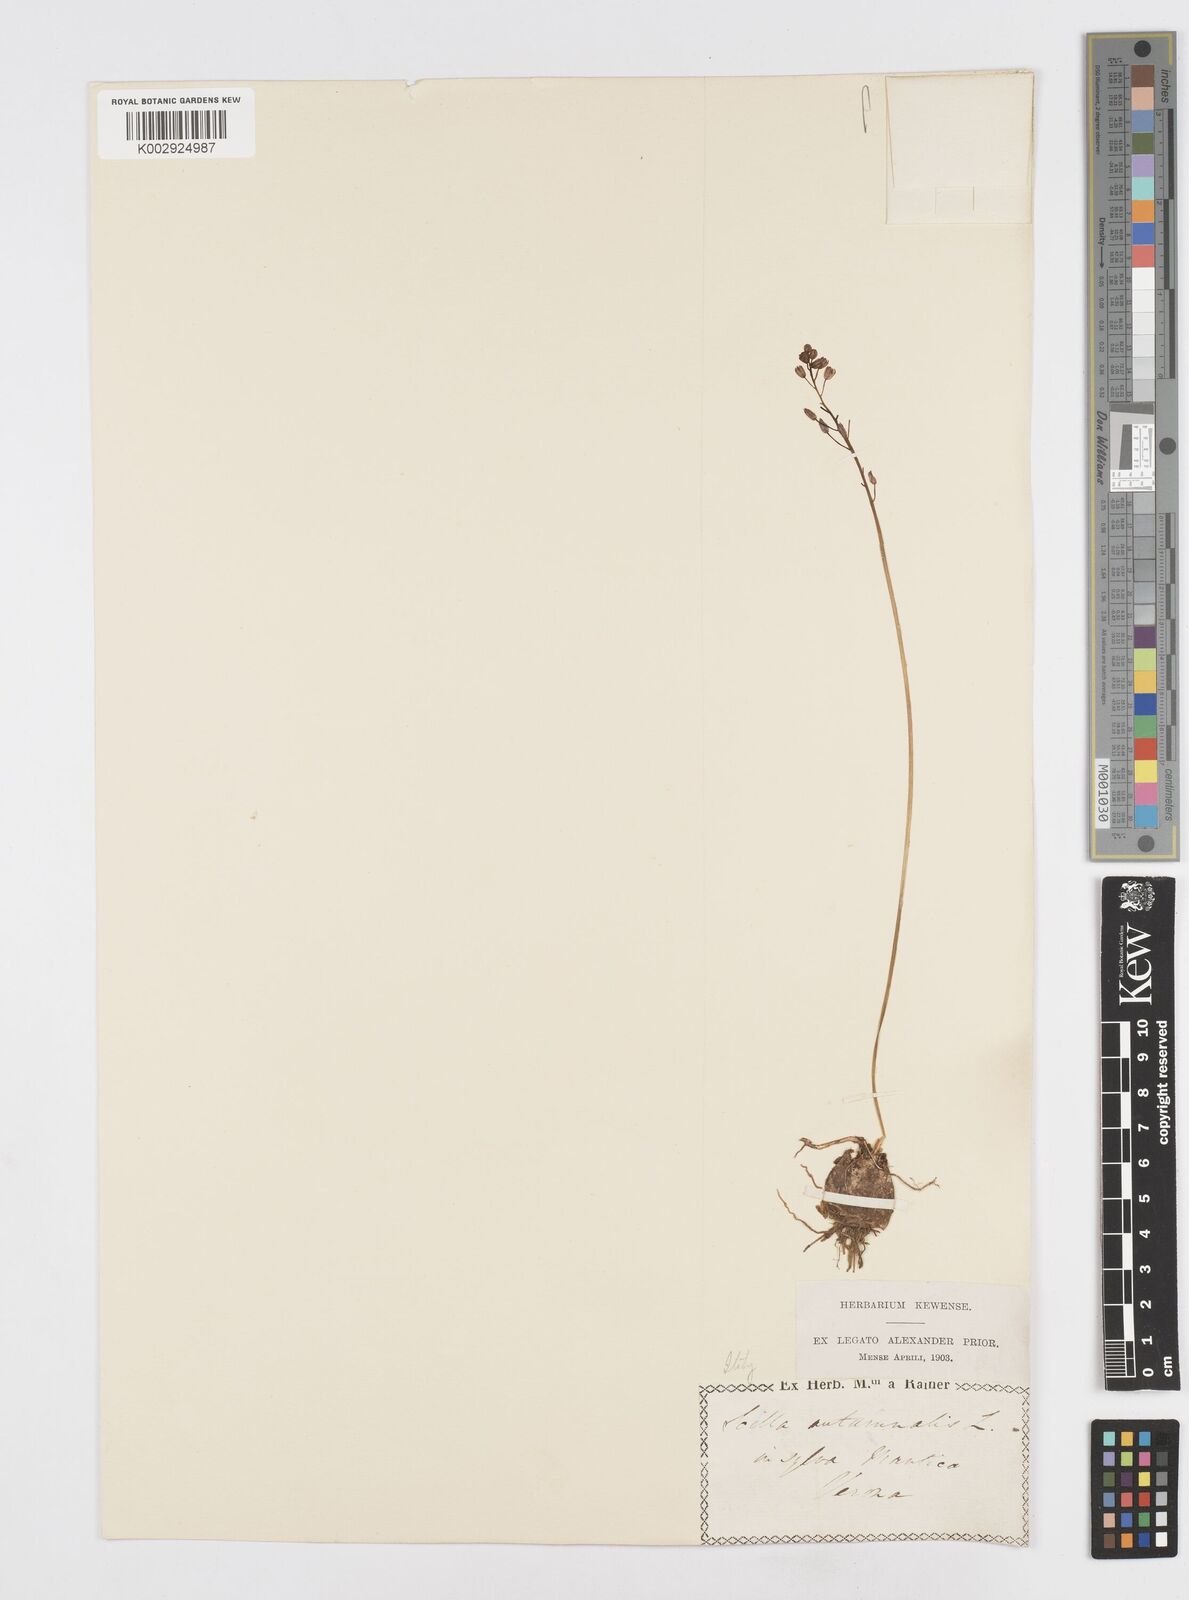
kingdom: Plantae
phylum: Tracheophyta
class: Liliopsida
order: Asparagales
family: Asparagaceae
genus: Prospero
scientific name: Prospero autumnale
